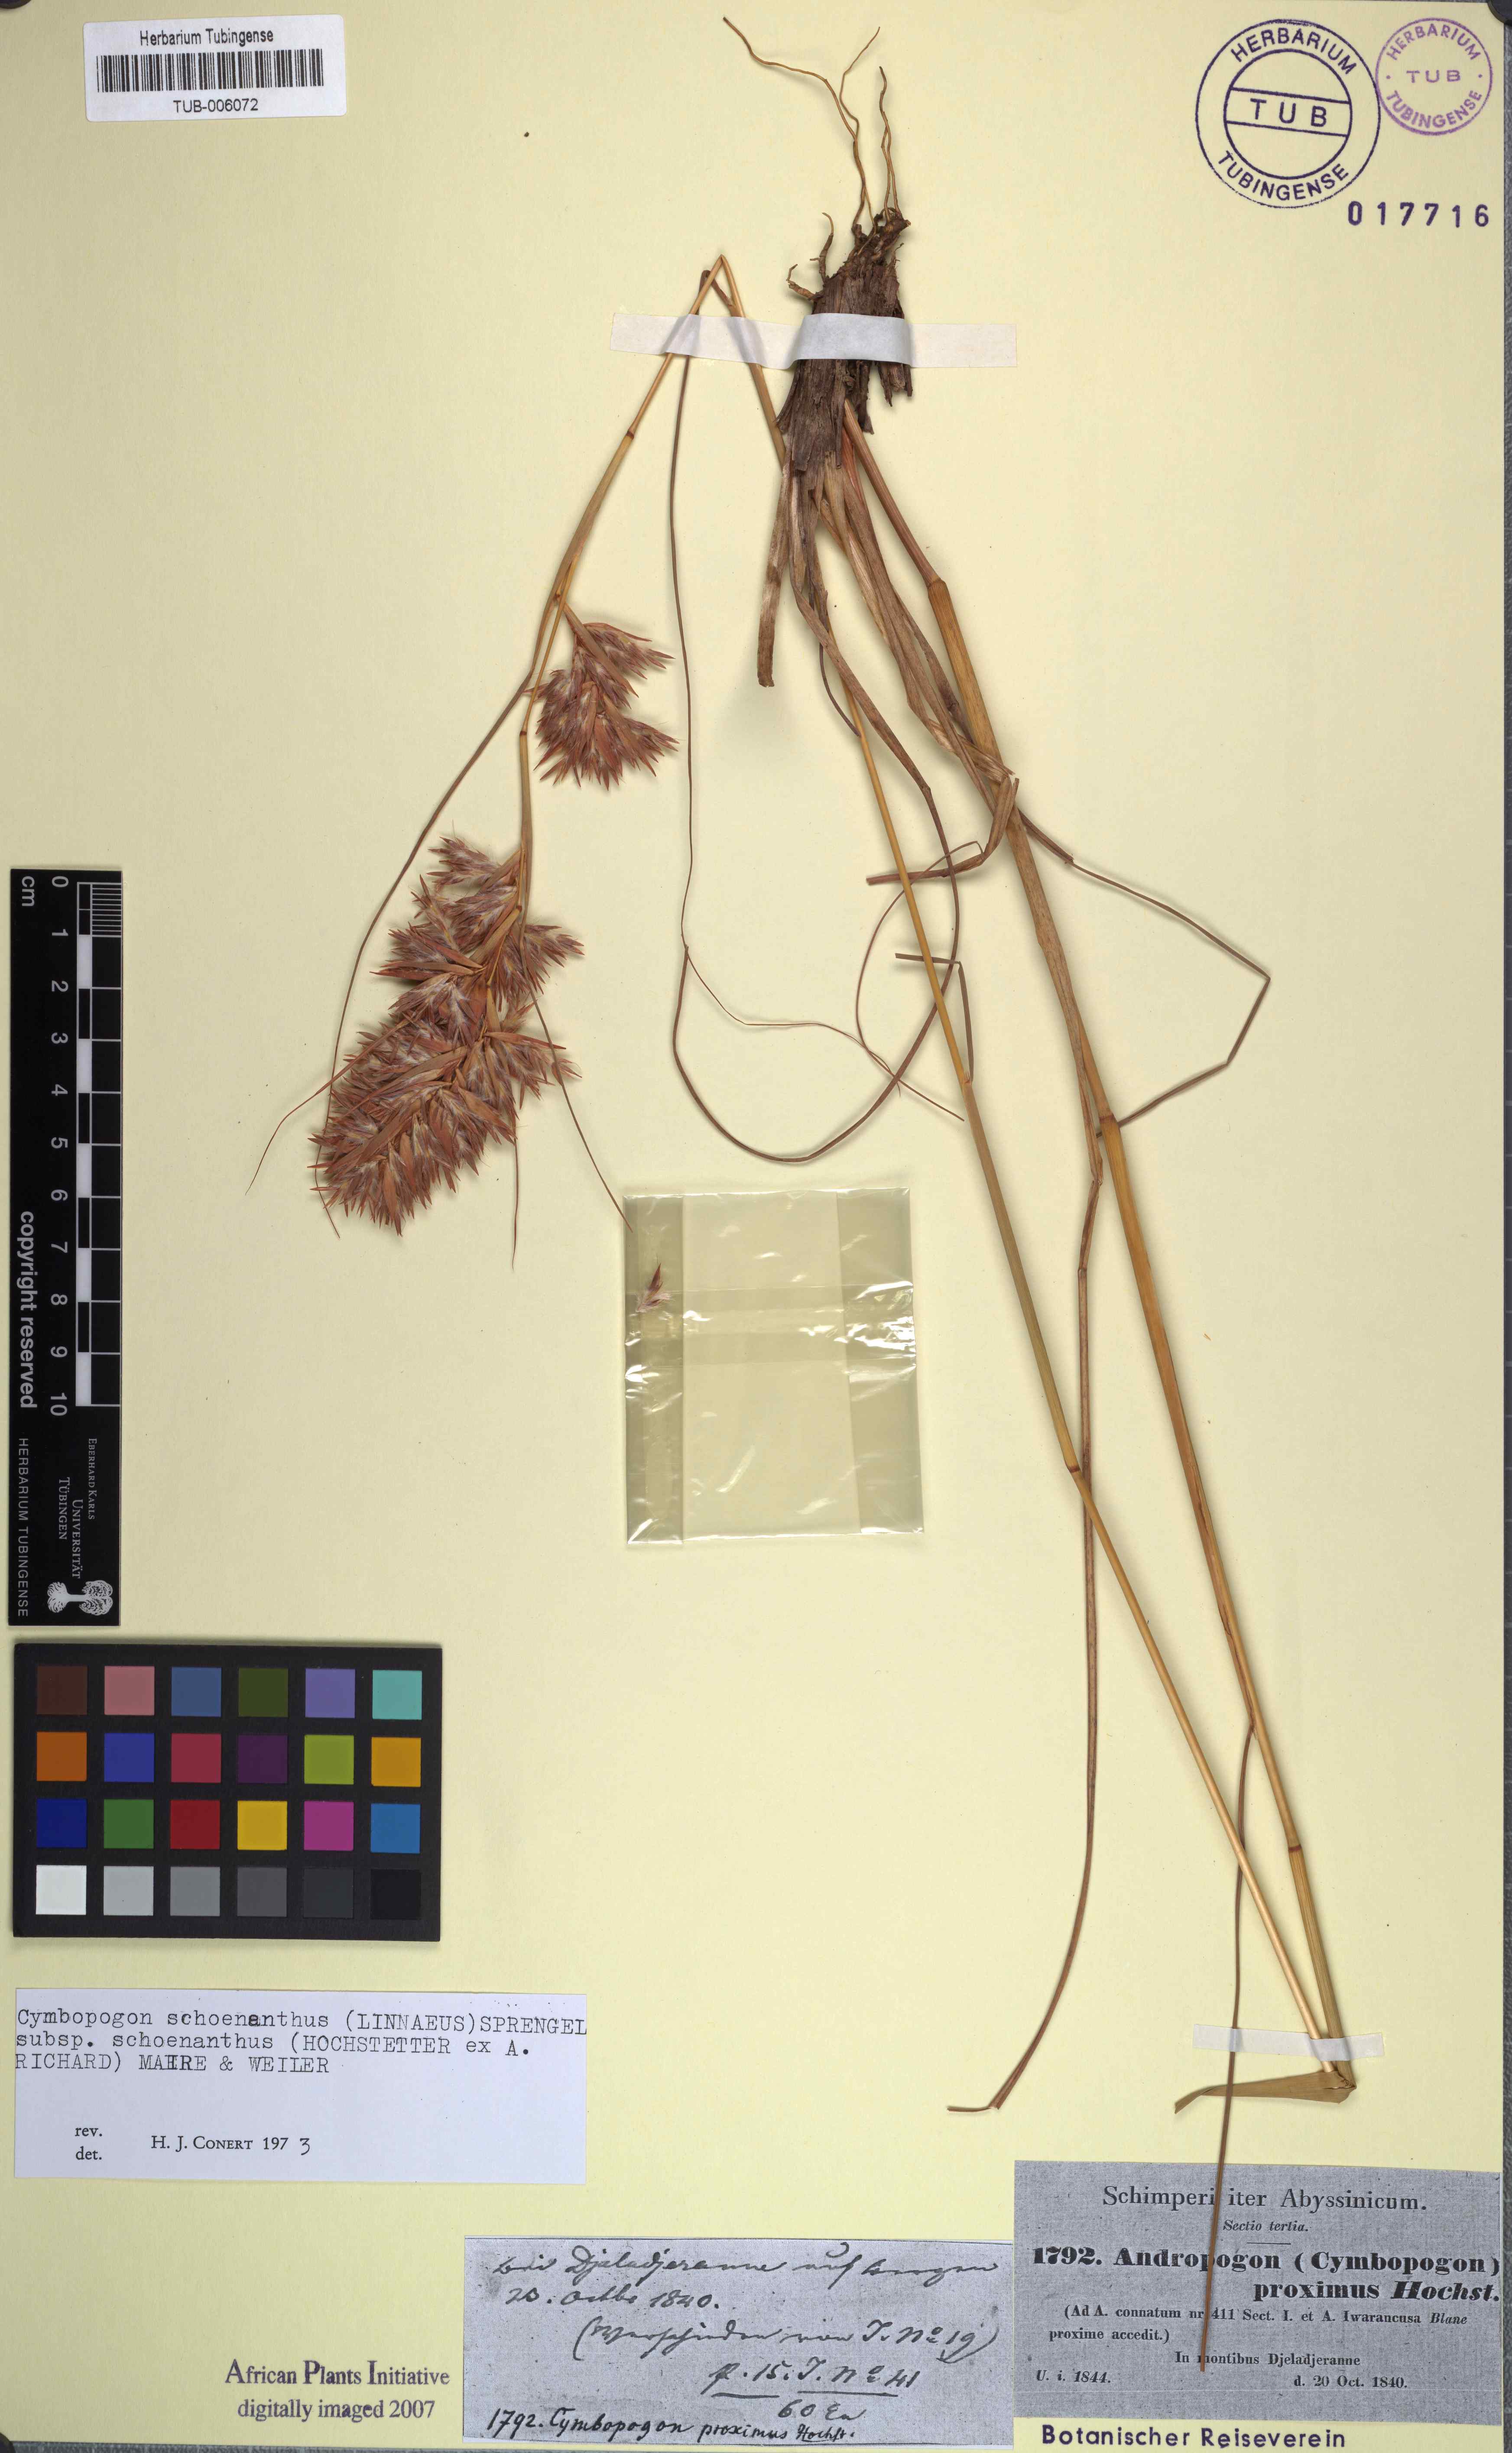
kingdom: Plantae
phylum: Tracheophyta
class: Liliopsida
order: Poales
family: Poaceae
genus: Cymbopogon
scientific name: Cymbopogon schoenanthus
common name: Geranium grass
